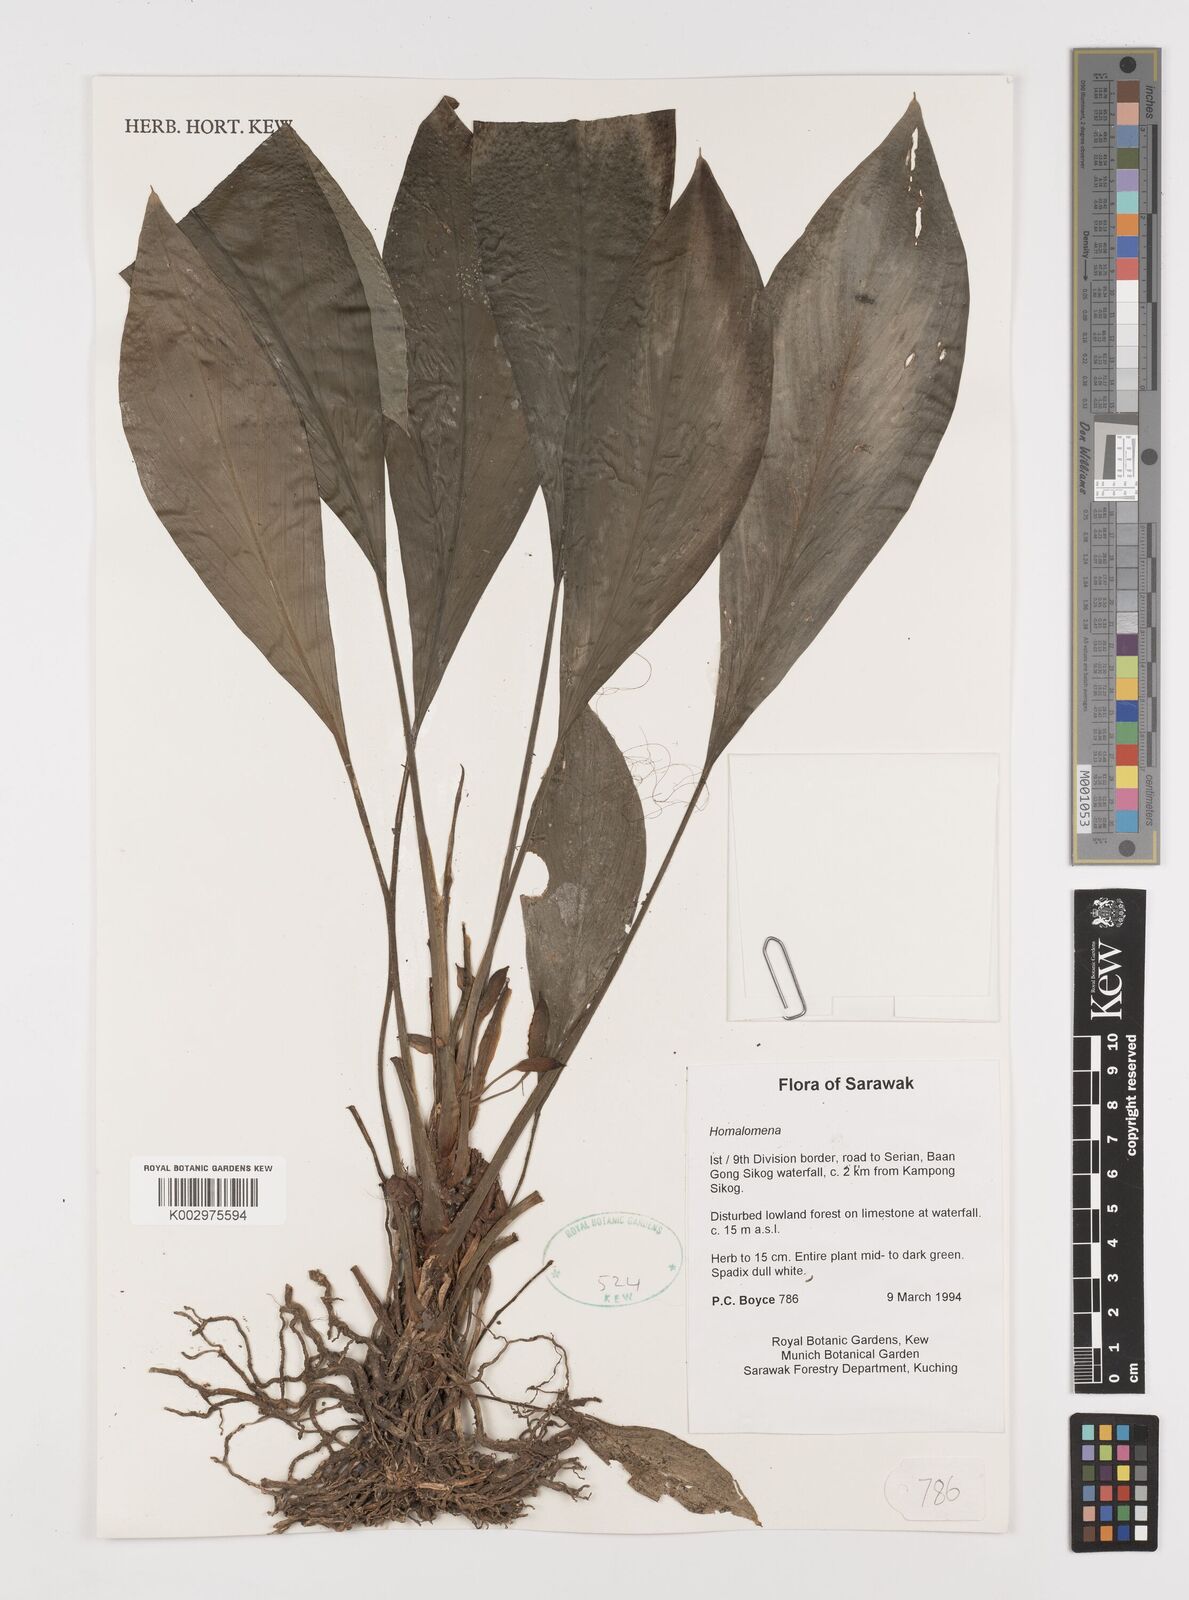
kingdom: Plantae
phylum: Tracheophyta
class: Liliopsida
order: Alismatales
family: Araceae
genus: Homalomena
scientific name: Homalomena
